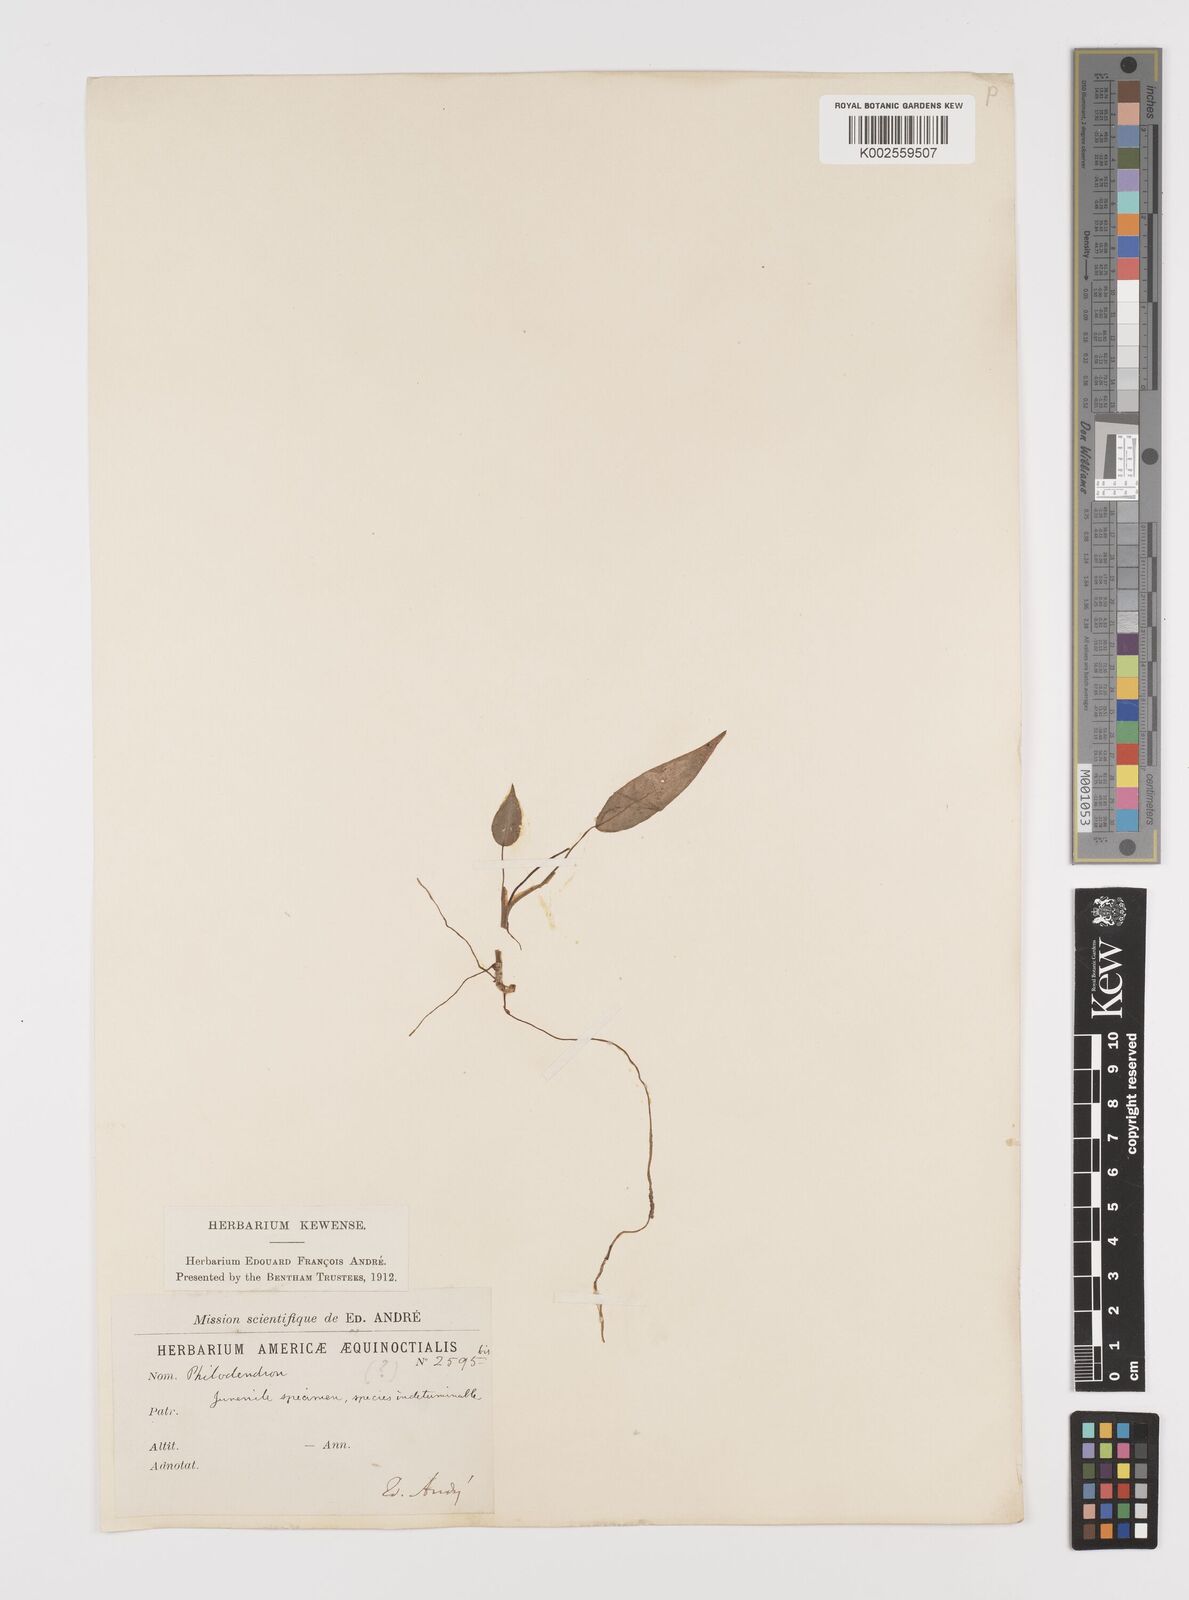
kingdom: Plantae
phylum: Tracheophyta
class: Liliopsida
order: Alismatales
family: Araceae
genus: Philodendron
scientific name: Philodendron
